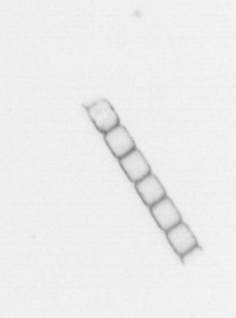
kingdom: Chromista
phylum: Ochrophyta
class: Bacillariophyceae
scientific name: Bacillariophyceae
